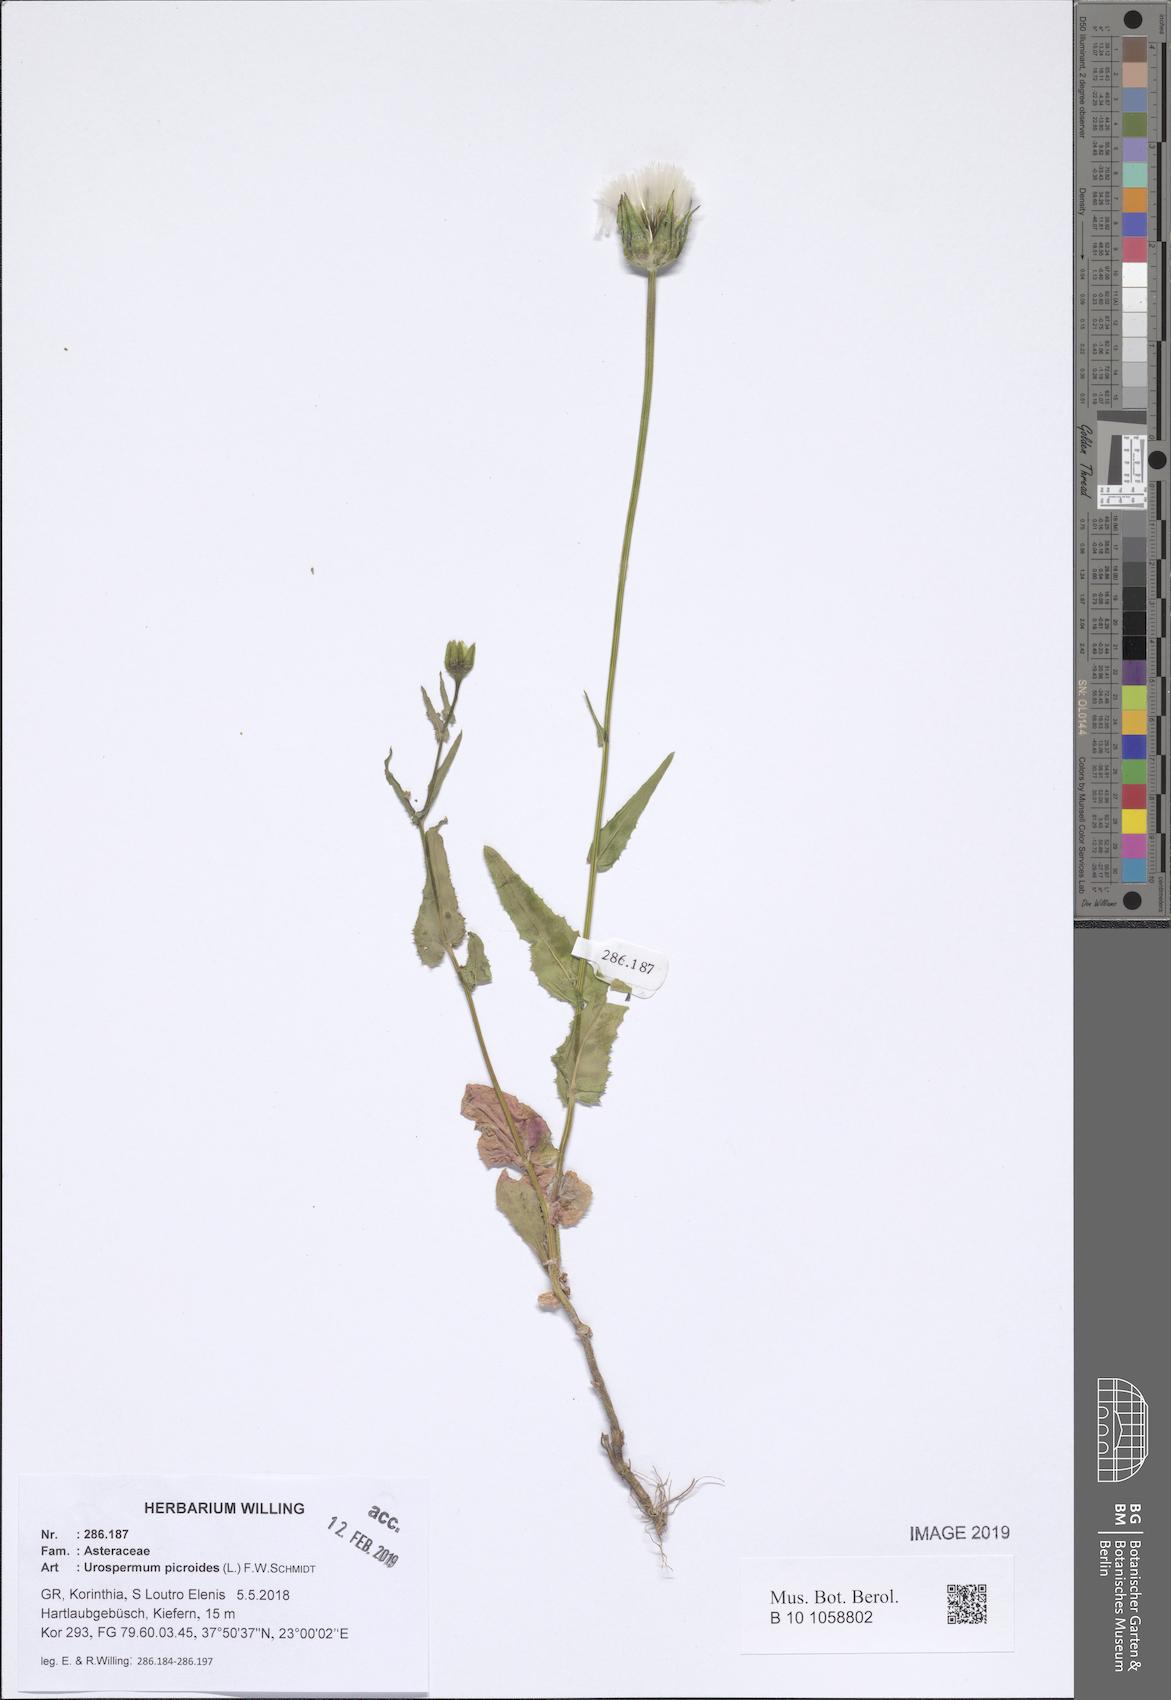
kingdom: Plantae
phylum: Tracheophyta
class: Magnoliopsida
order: Asterales
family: Asteraceae
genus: Urospermum
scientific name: Urospermum picroides
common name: False hawkbit
